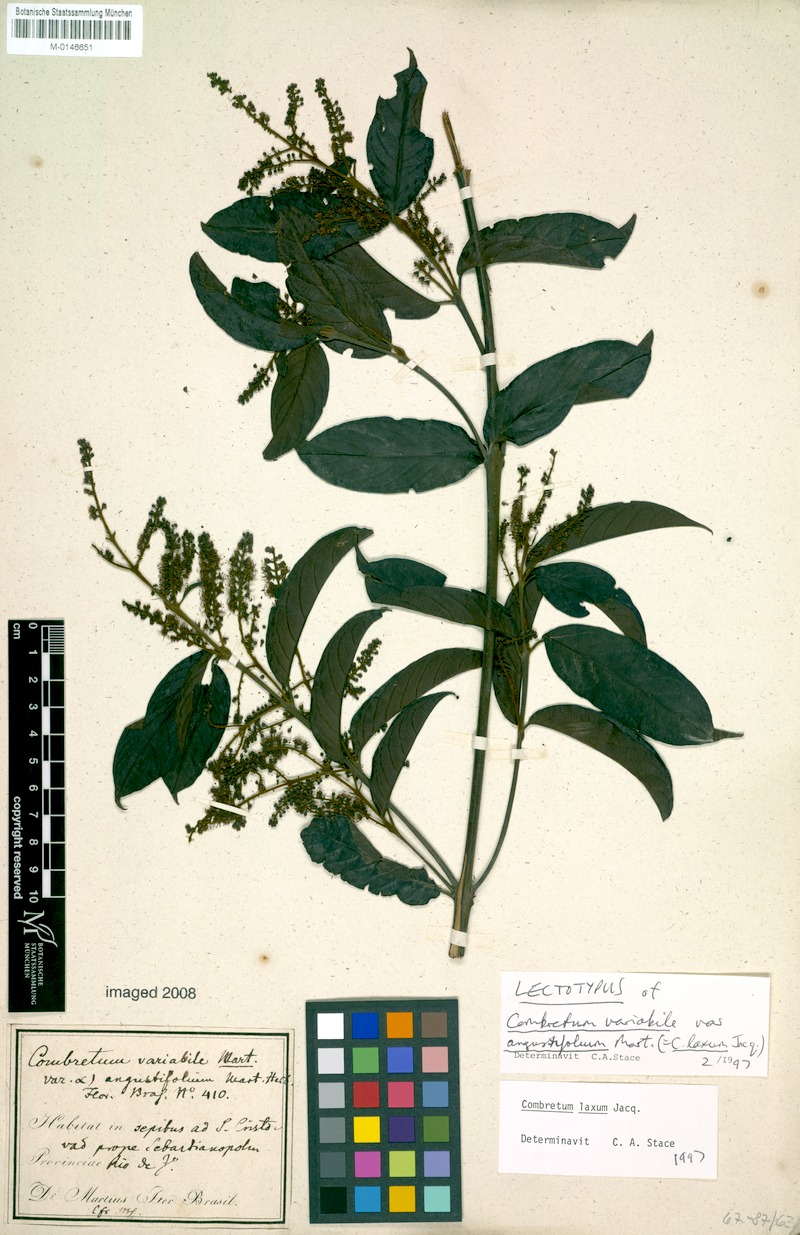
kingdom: Plantae
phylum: Tracheophyta
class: Magnoliopsida
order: Myrtales
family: Combretaceae
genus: Combretum
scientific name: Combretum laxum
